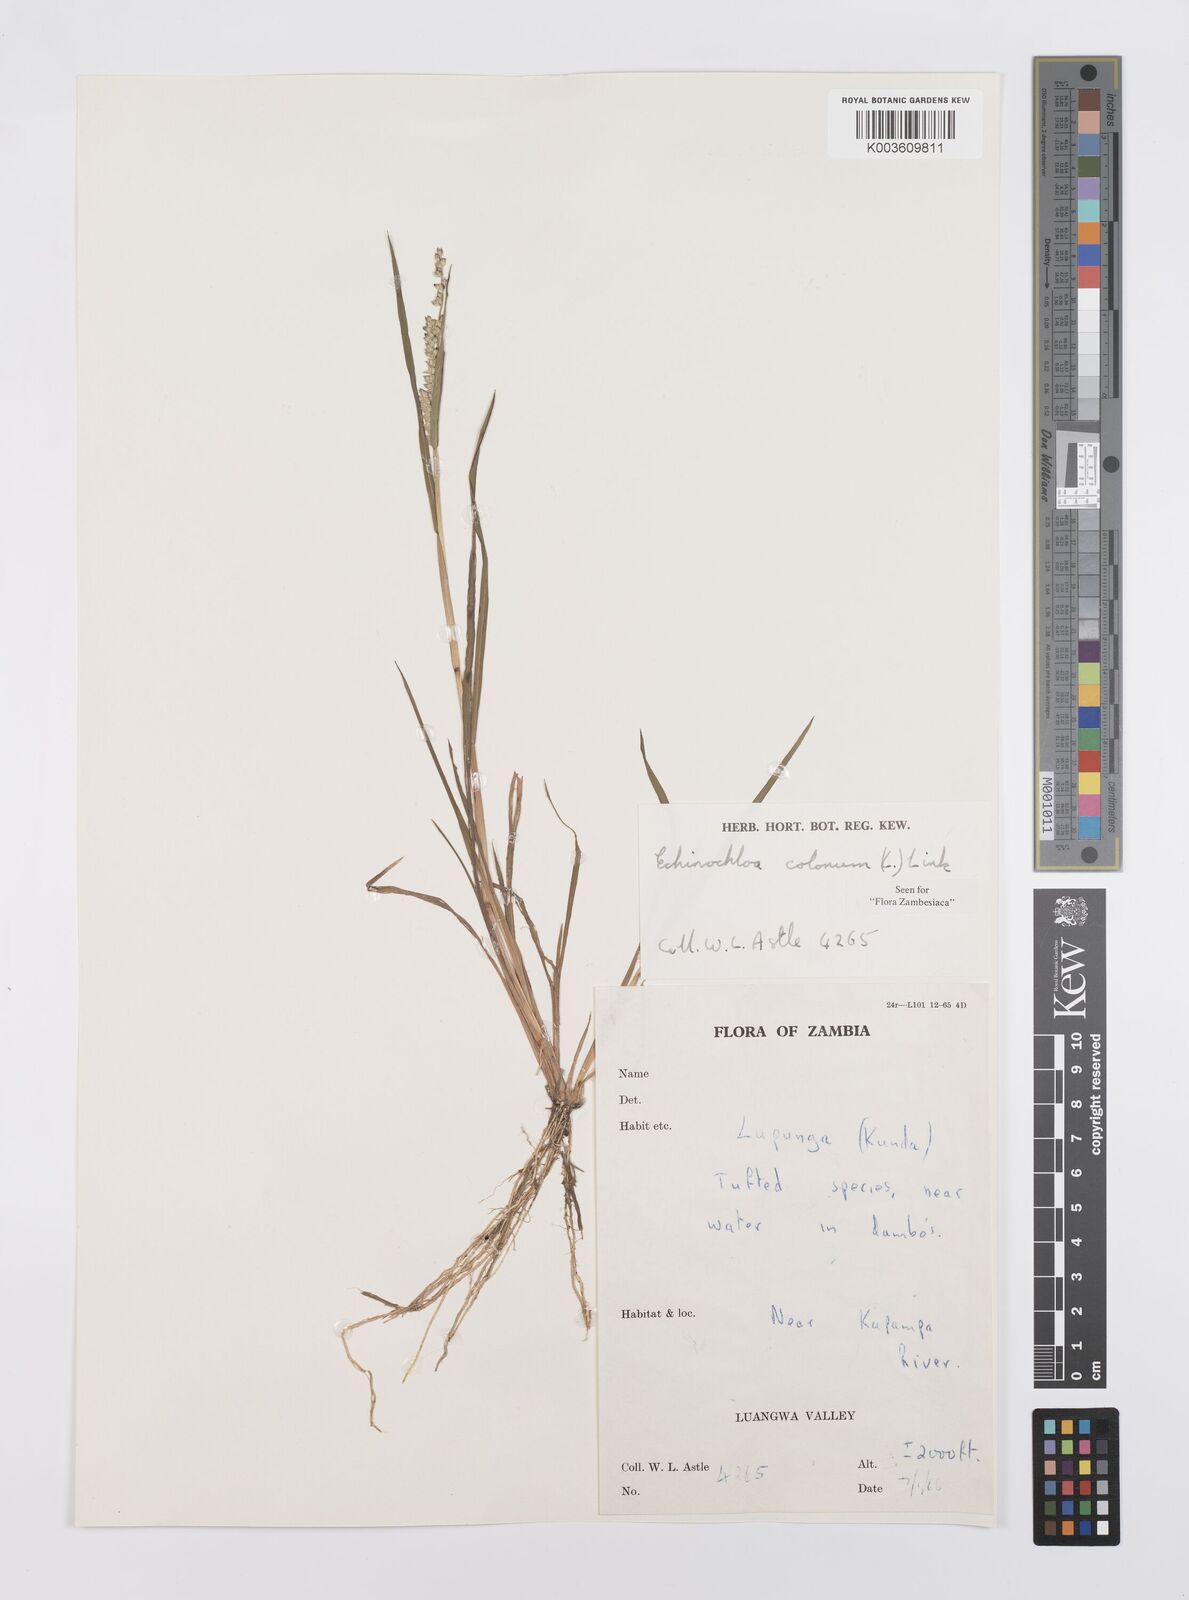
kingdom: Plantae
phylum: Tracheophyta
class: Liliopsida
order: Poales
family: Poaceae
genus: Echinochloa
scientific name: Echinochloa colonum
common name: Jungle rice
